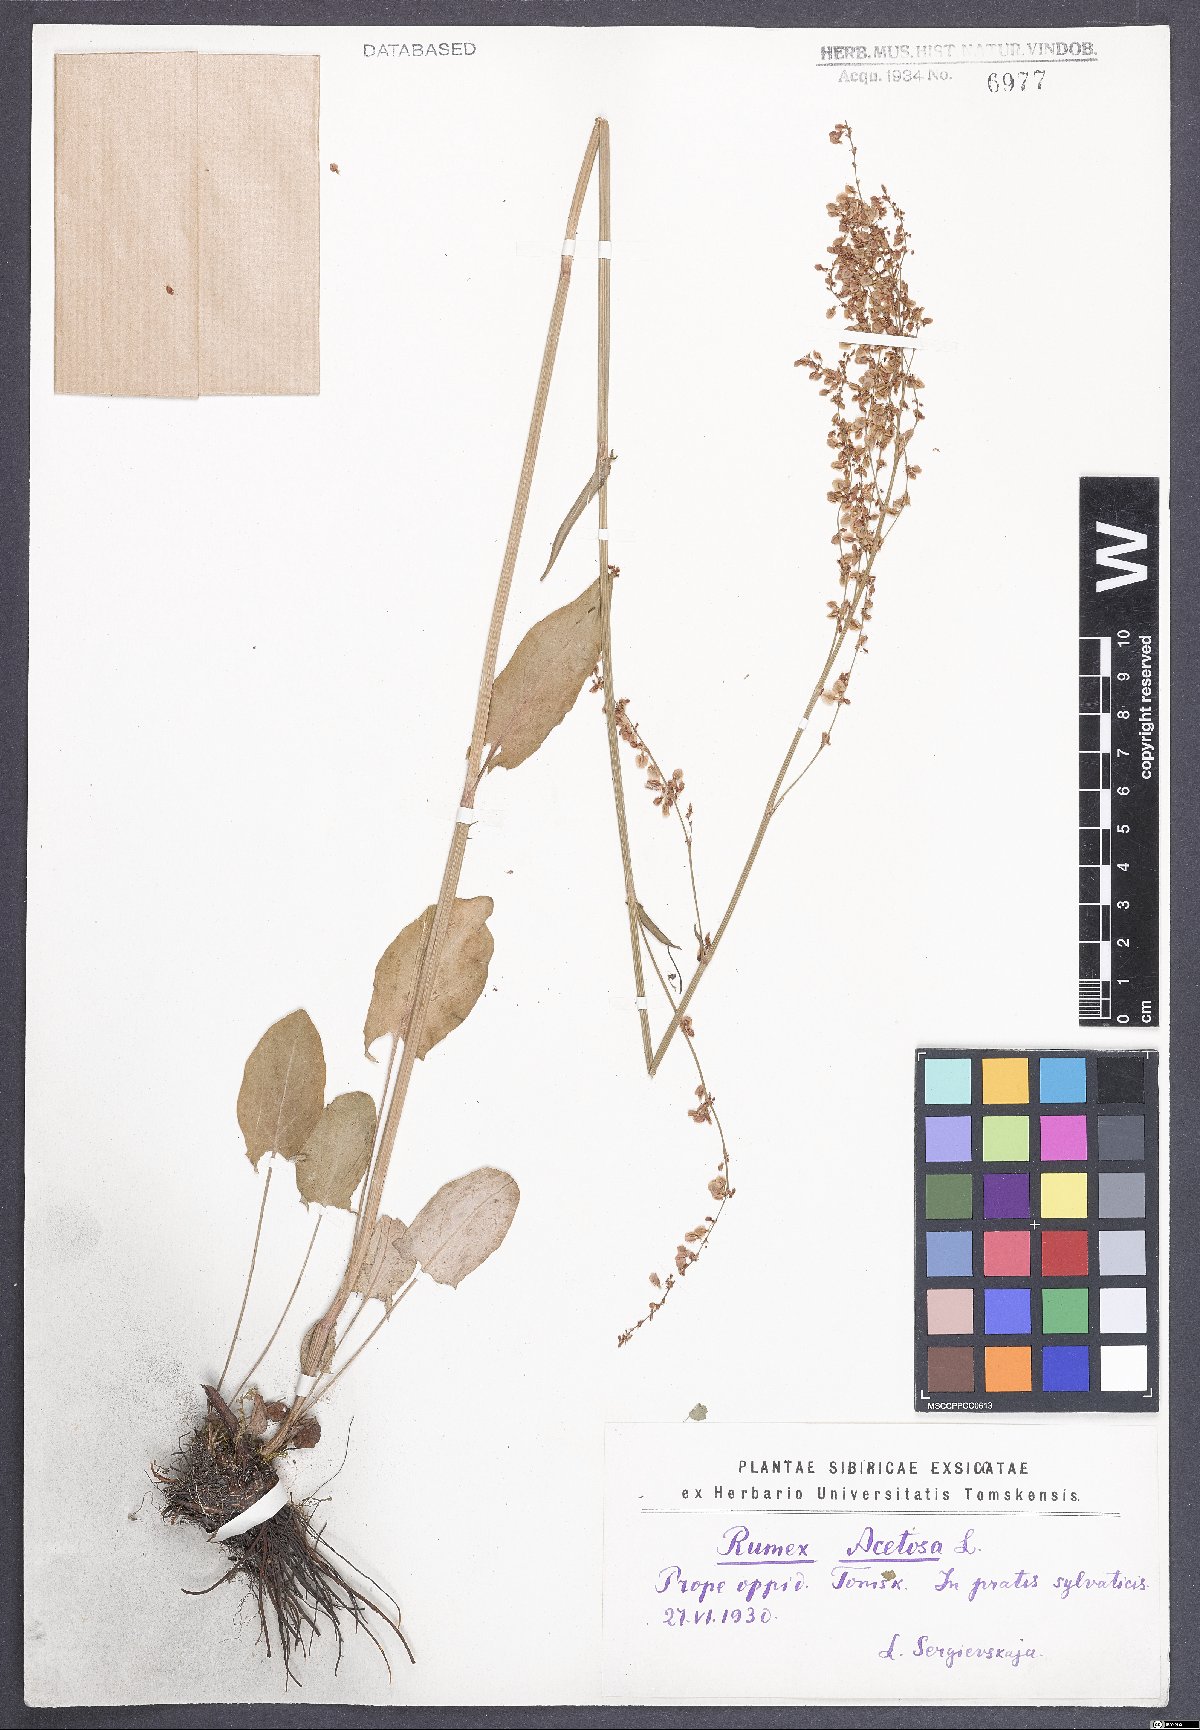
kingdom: Plantae
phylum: Tracheophyta
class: Magnoliopsida
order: Caryophyllales
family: Polygonaceae
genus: Rumex
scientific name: Rumex acetosa
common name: Garden sorrel
